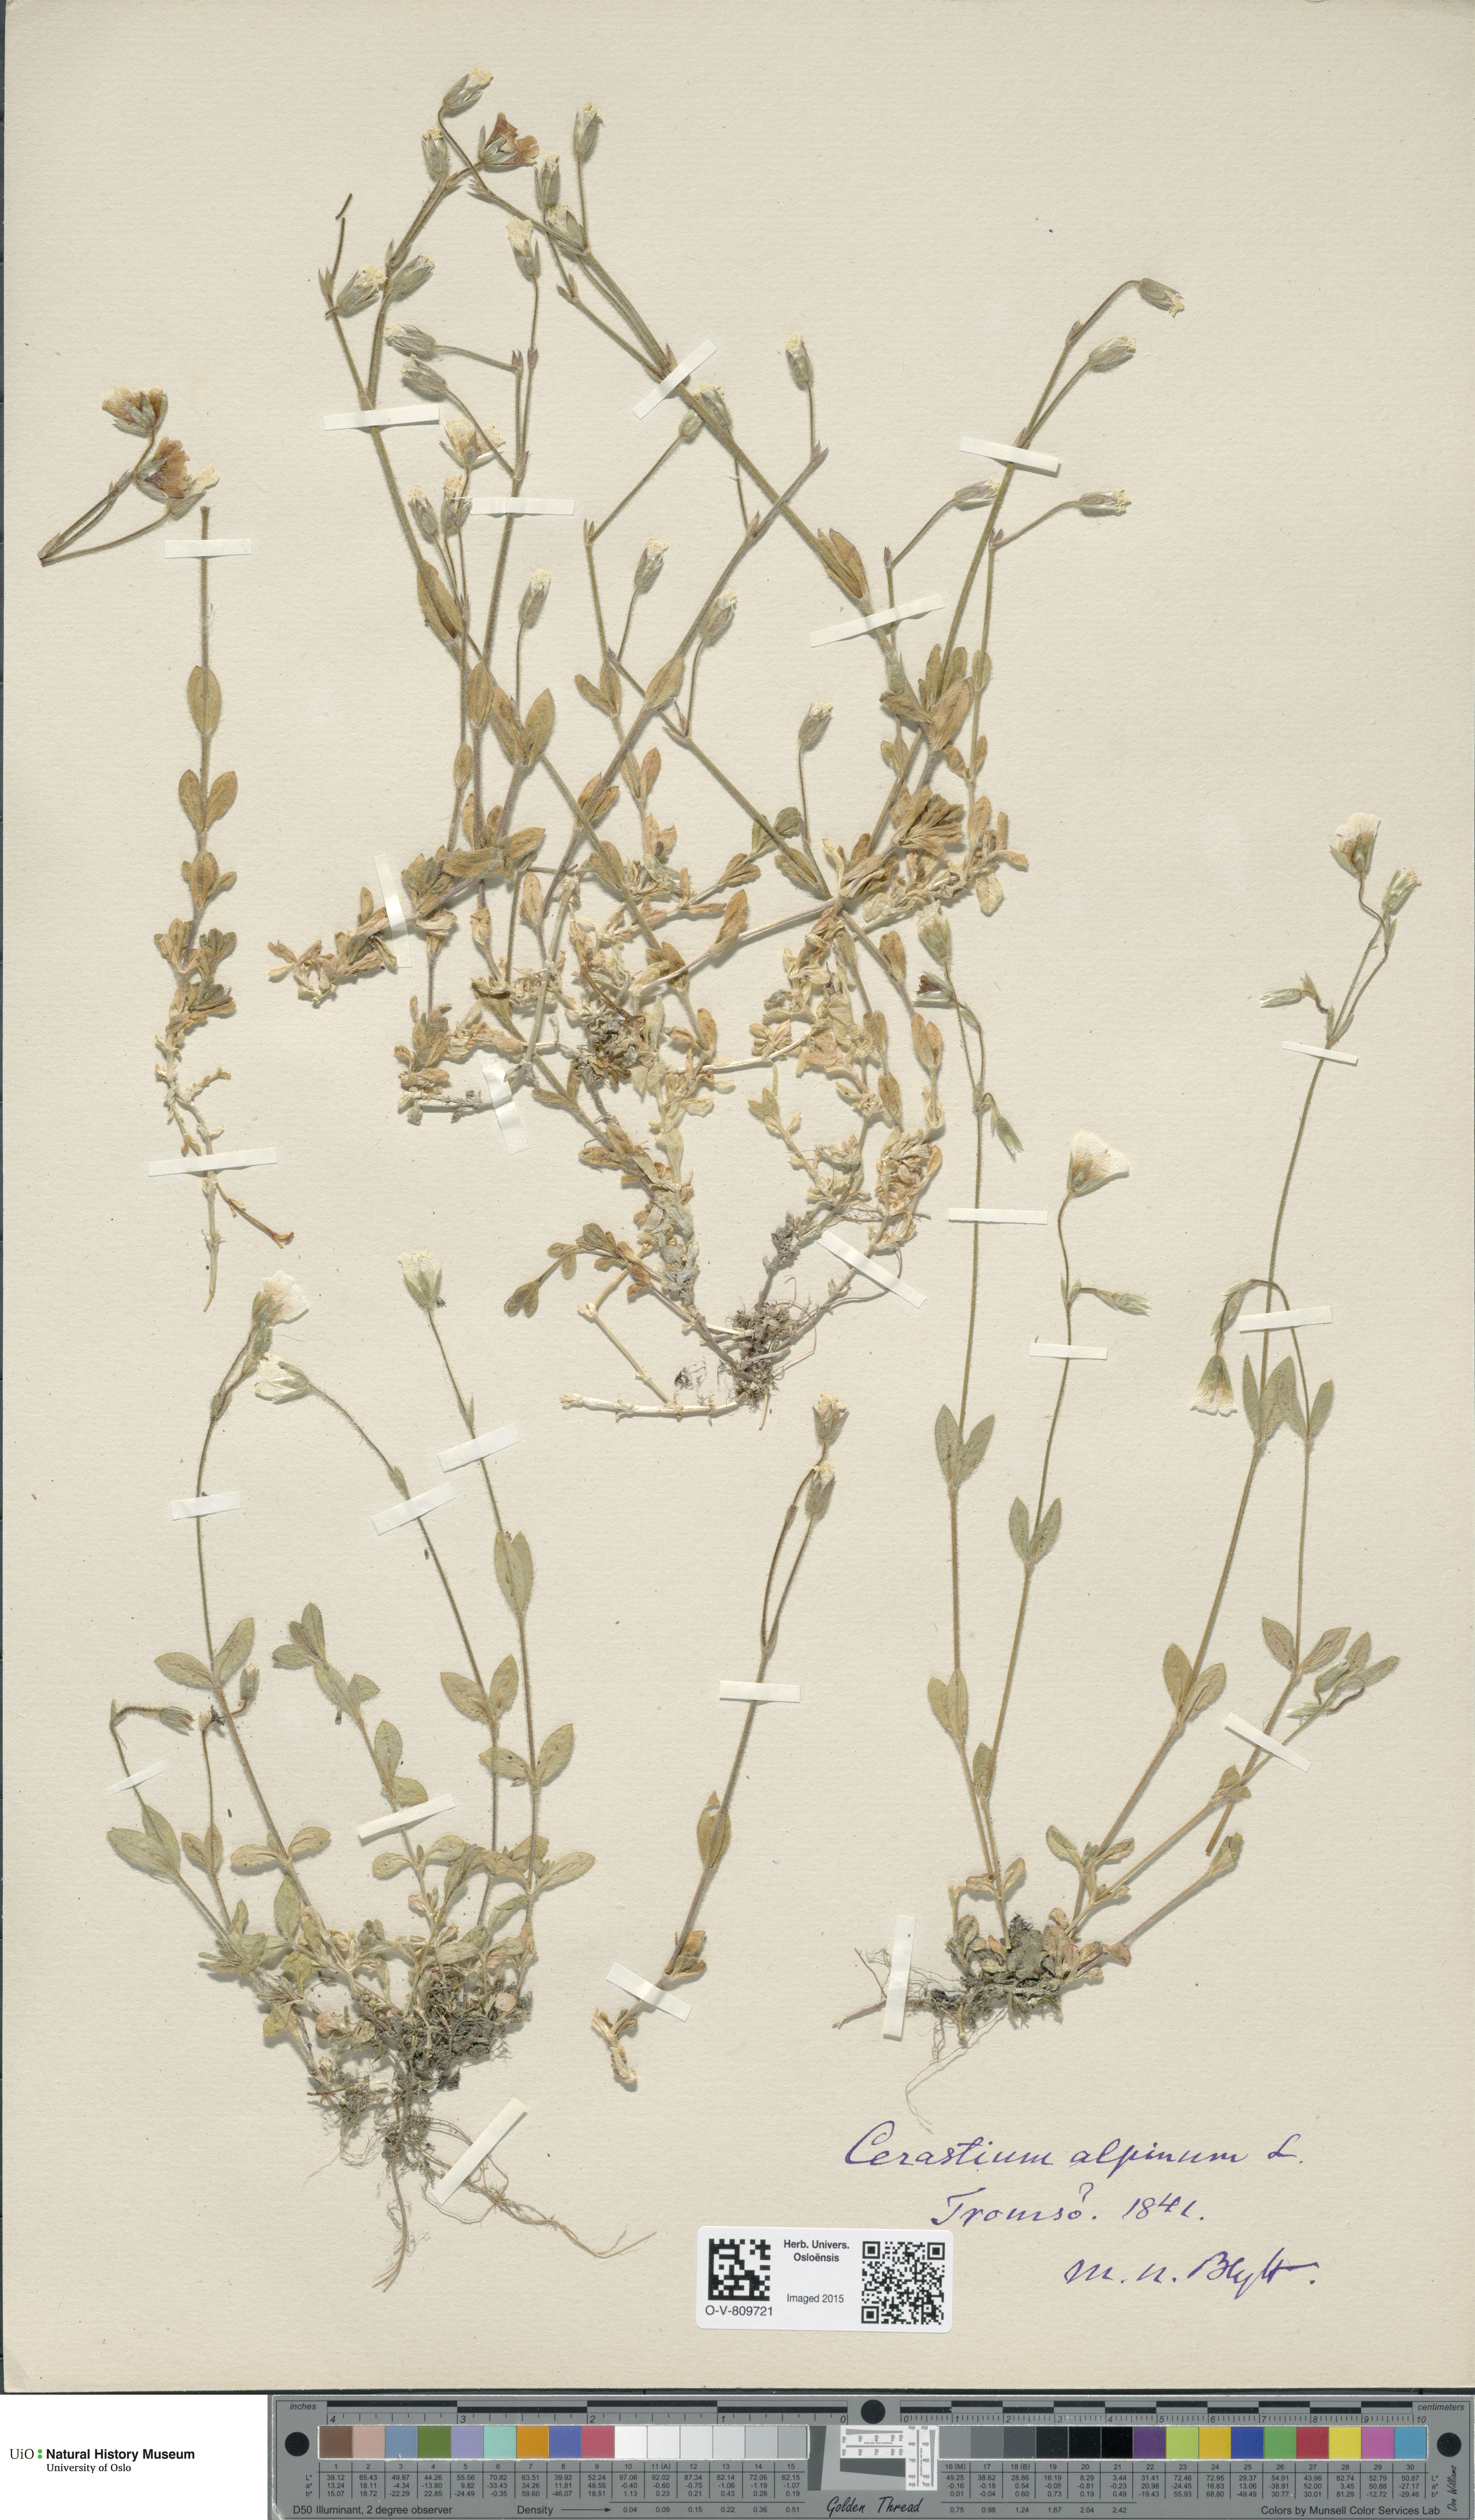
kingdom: Plantae
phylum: Tracheophyta
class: Magnoliopsida
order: Caryophyllales
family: Caryophyllaceae
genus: Cerastium
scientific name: Cerastium alpinum
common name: Alpine mouse-ear
